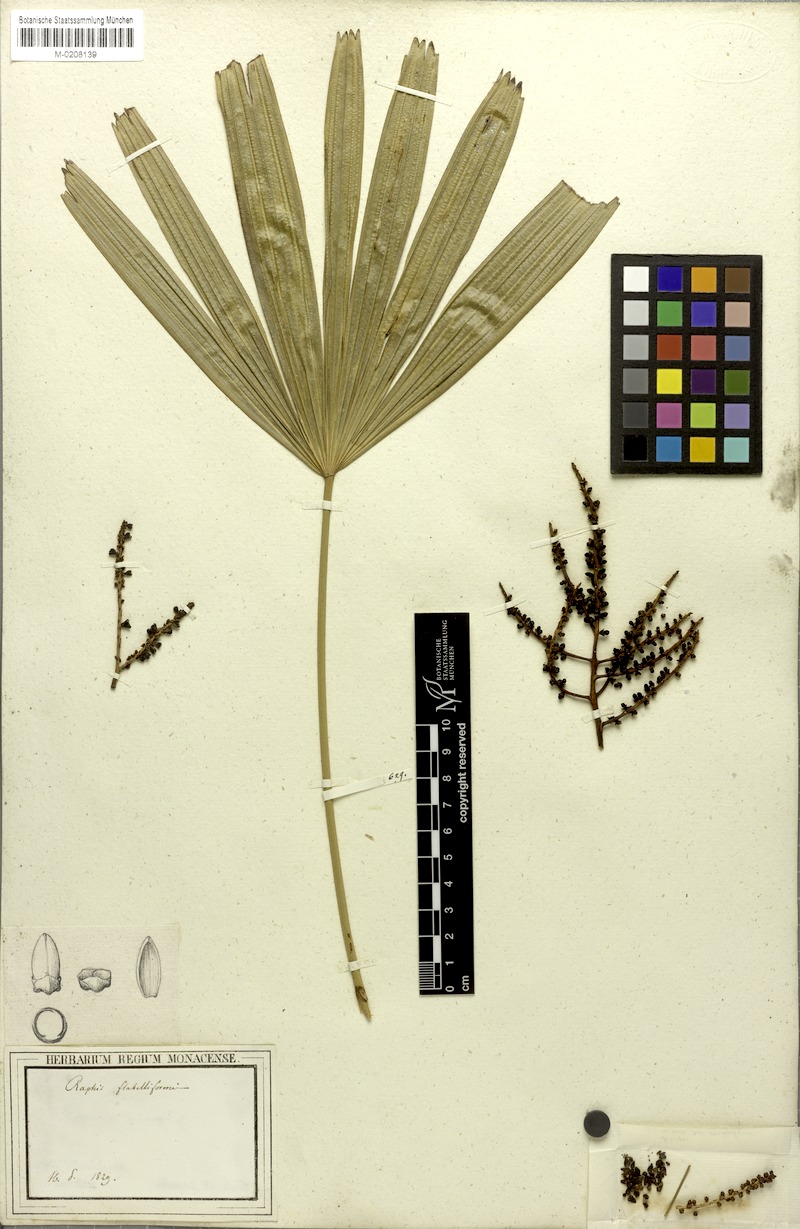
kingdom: Plantae
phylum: Tracheophyta
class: Liliopsida
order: Arecales
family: Arecaceae
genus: Rhapis
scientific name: Rhapis excelsa
